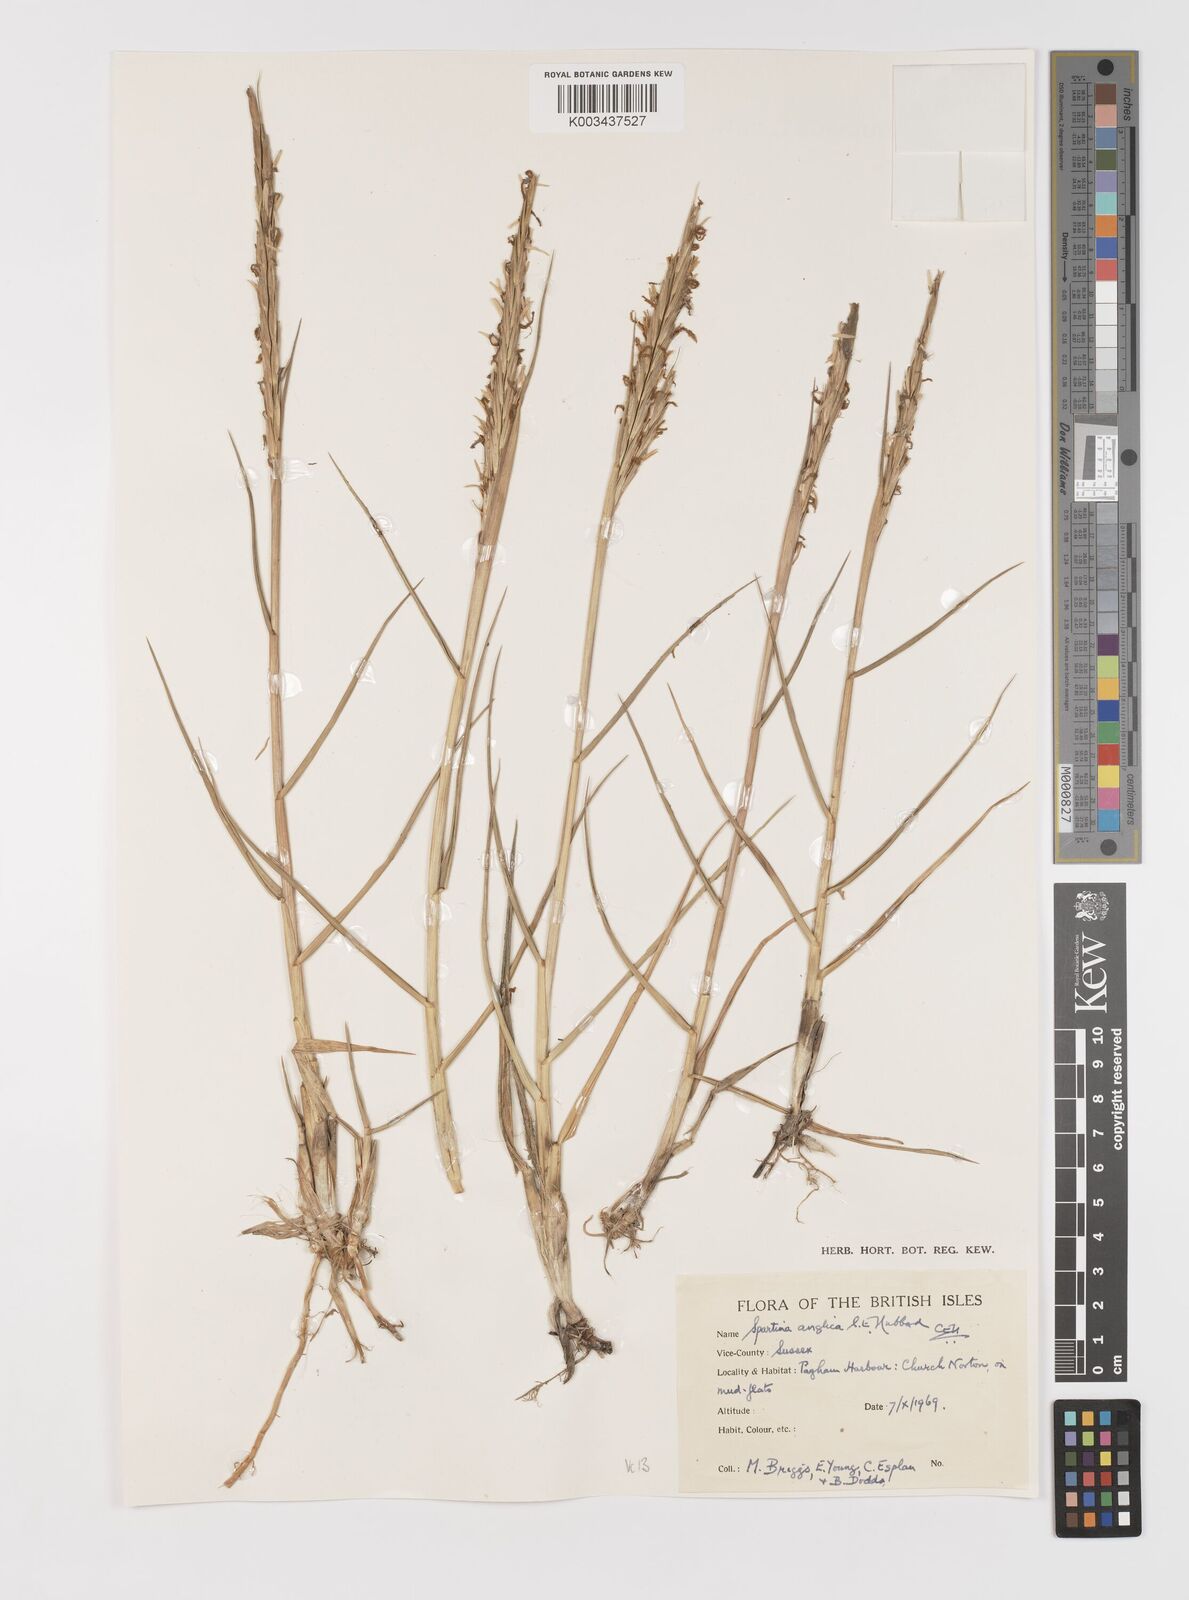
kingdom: Plantae
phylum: Tracheophyta
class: Liliopsida
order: Poales
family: Poaceae
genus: Sporobolus
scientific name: Sporobolus anglicus
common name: English cordgrass
